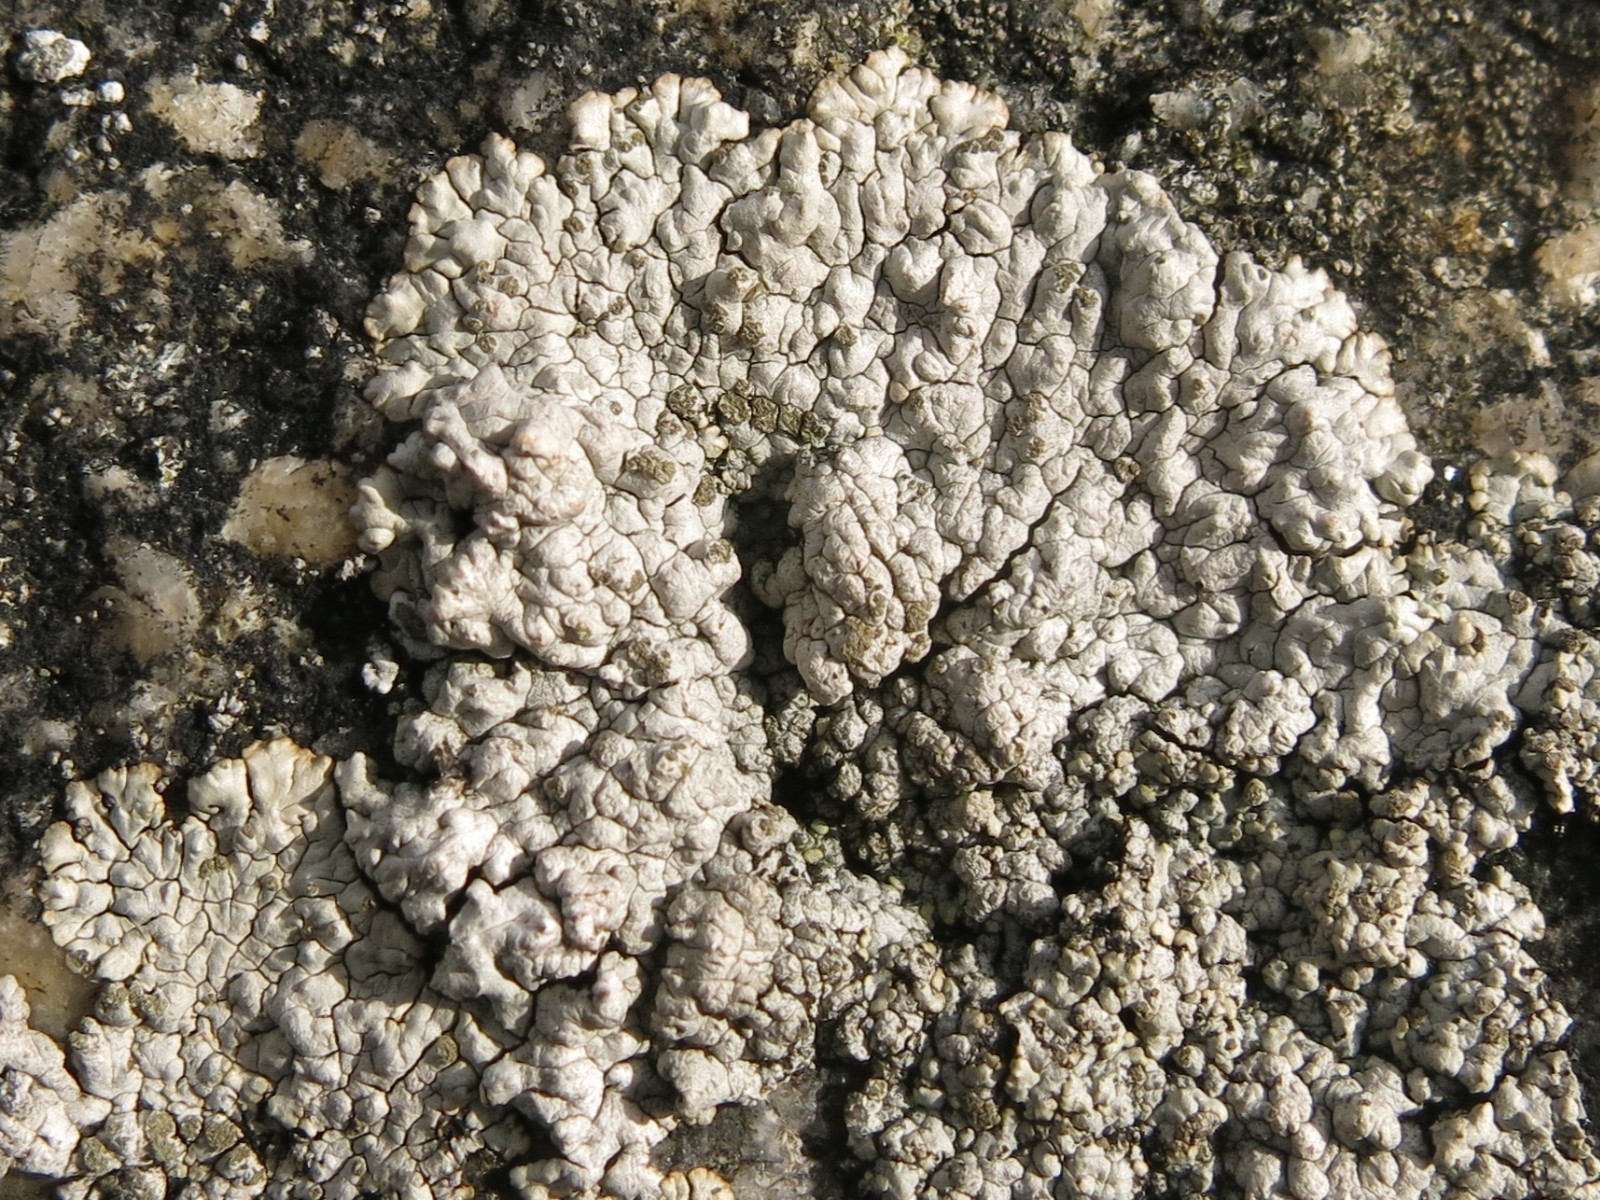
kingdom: Fungi
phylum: Ascomycota
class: Lecanoromycetes
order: Baeomycetales
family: Trapeliaceae
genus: Kleopowiella
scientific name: Kleopowiella placodioides
